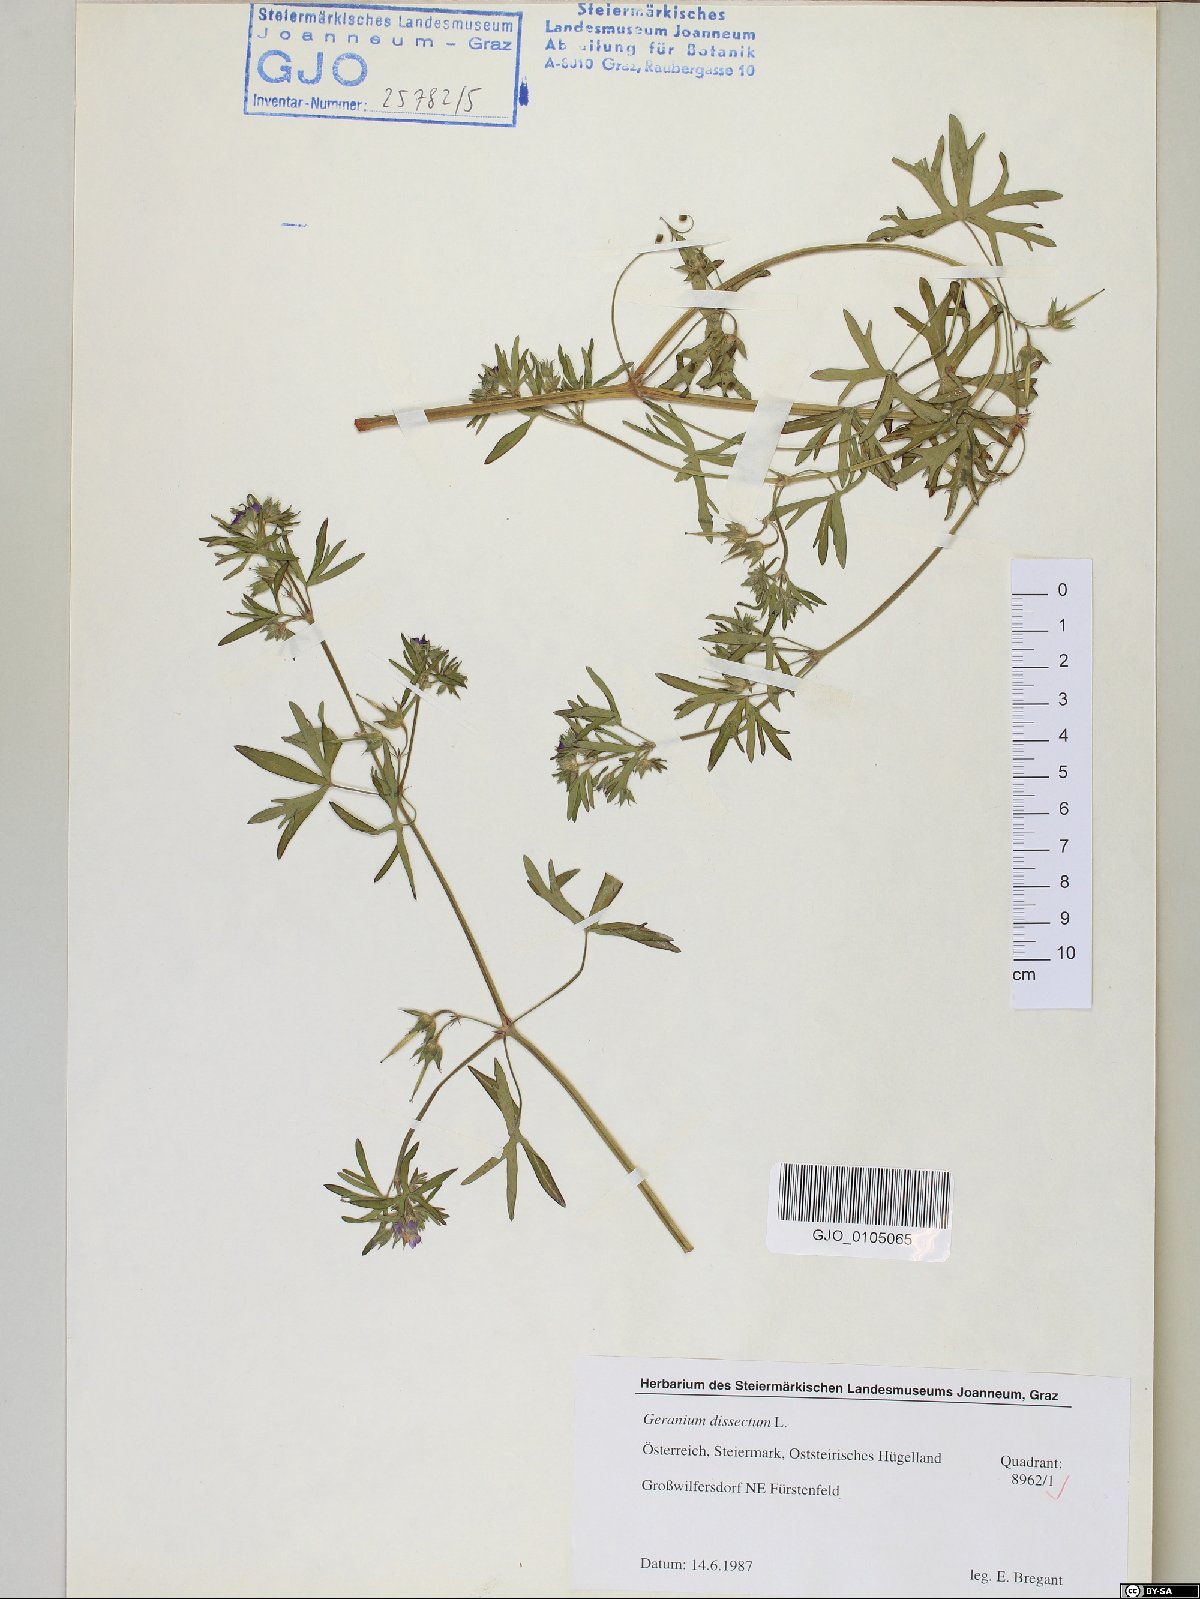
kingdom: Plantae
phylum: Tracheophyta
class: Magnoliopsida
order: Geraniales
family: Geraniaceae
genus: Geranium
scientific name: Geranium dissectum
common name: Cut-leaved crane's-bill
